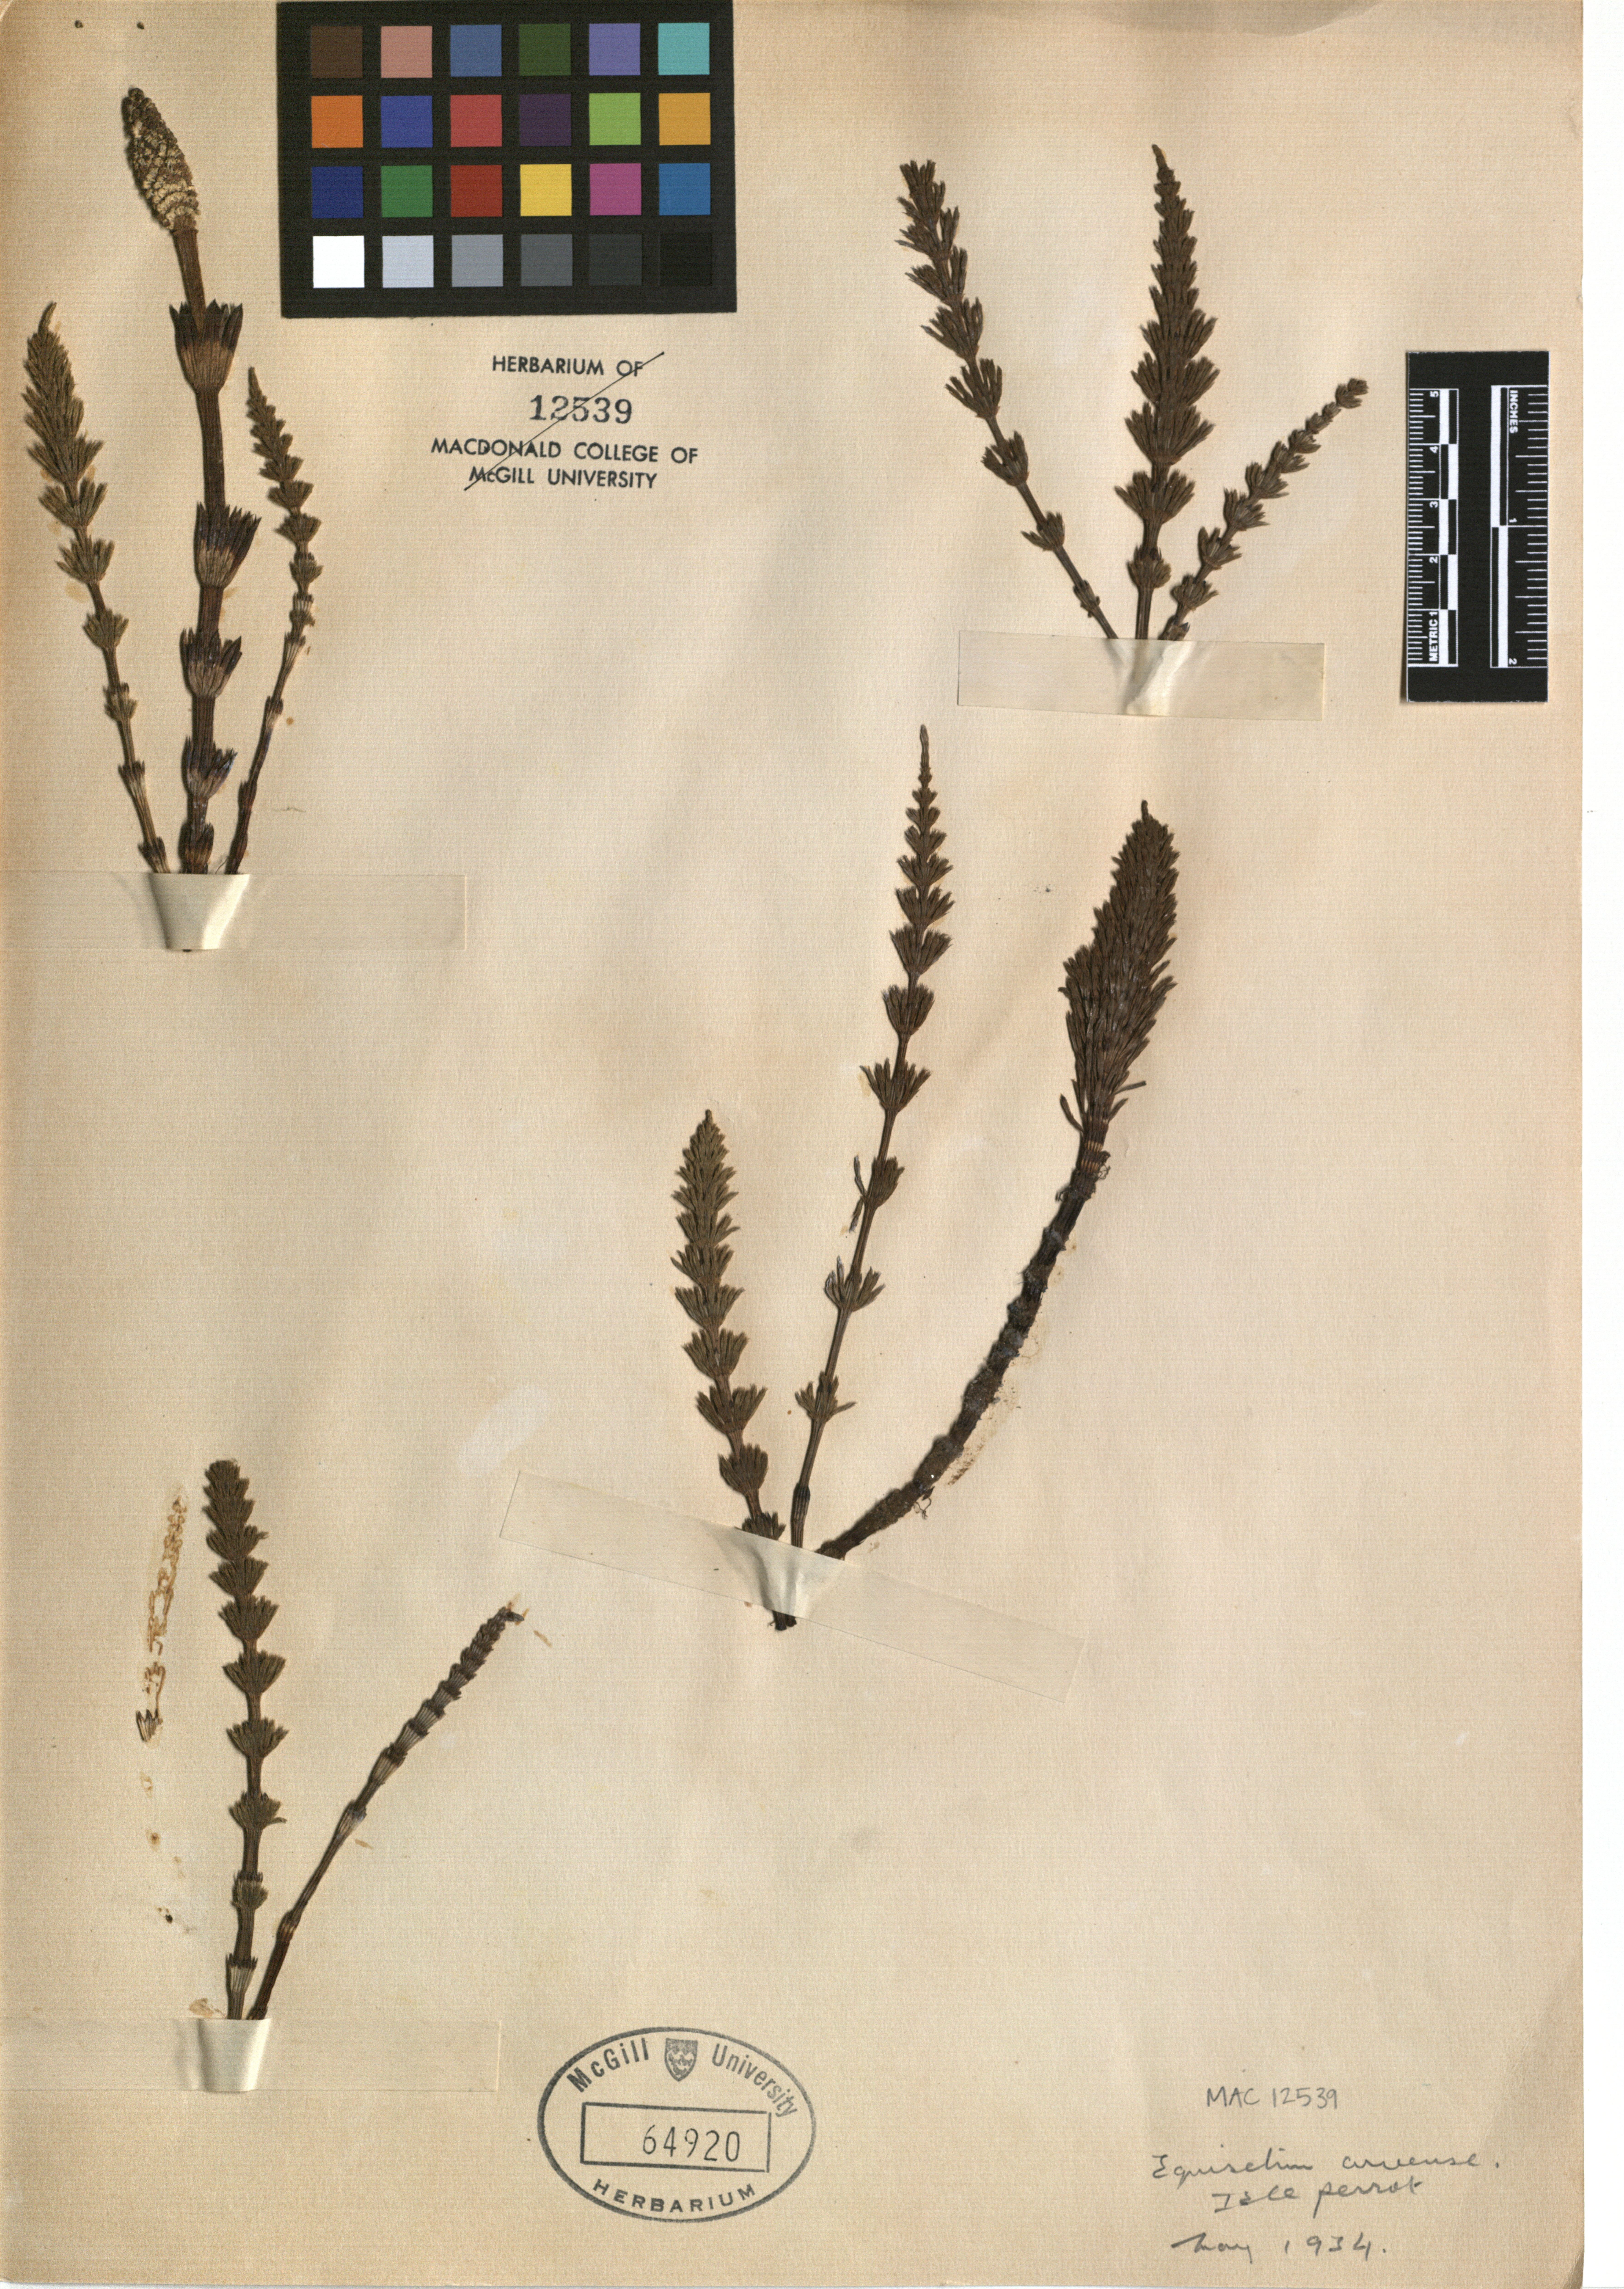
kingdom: Plantae
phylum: Tracheophyta
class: Polypodiopsida
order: Equisetales
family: Equisetaceae
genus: Equisetum
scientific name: Equisetum arvense
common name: Field horsetail
